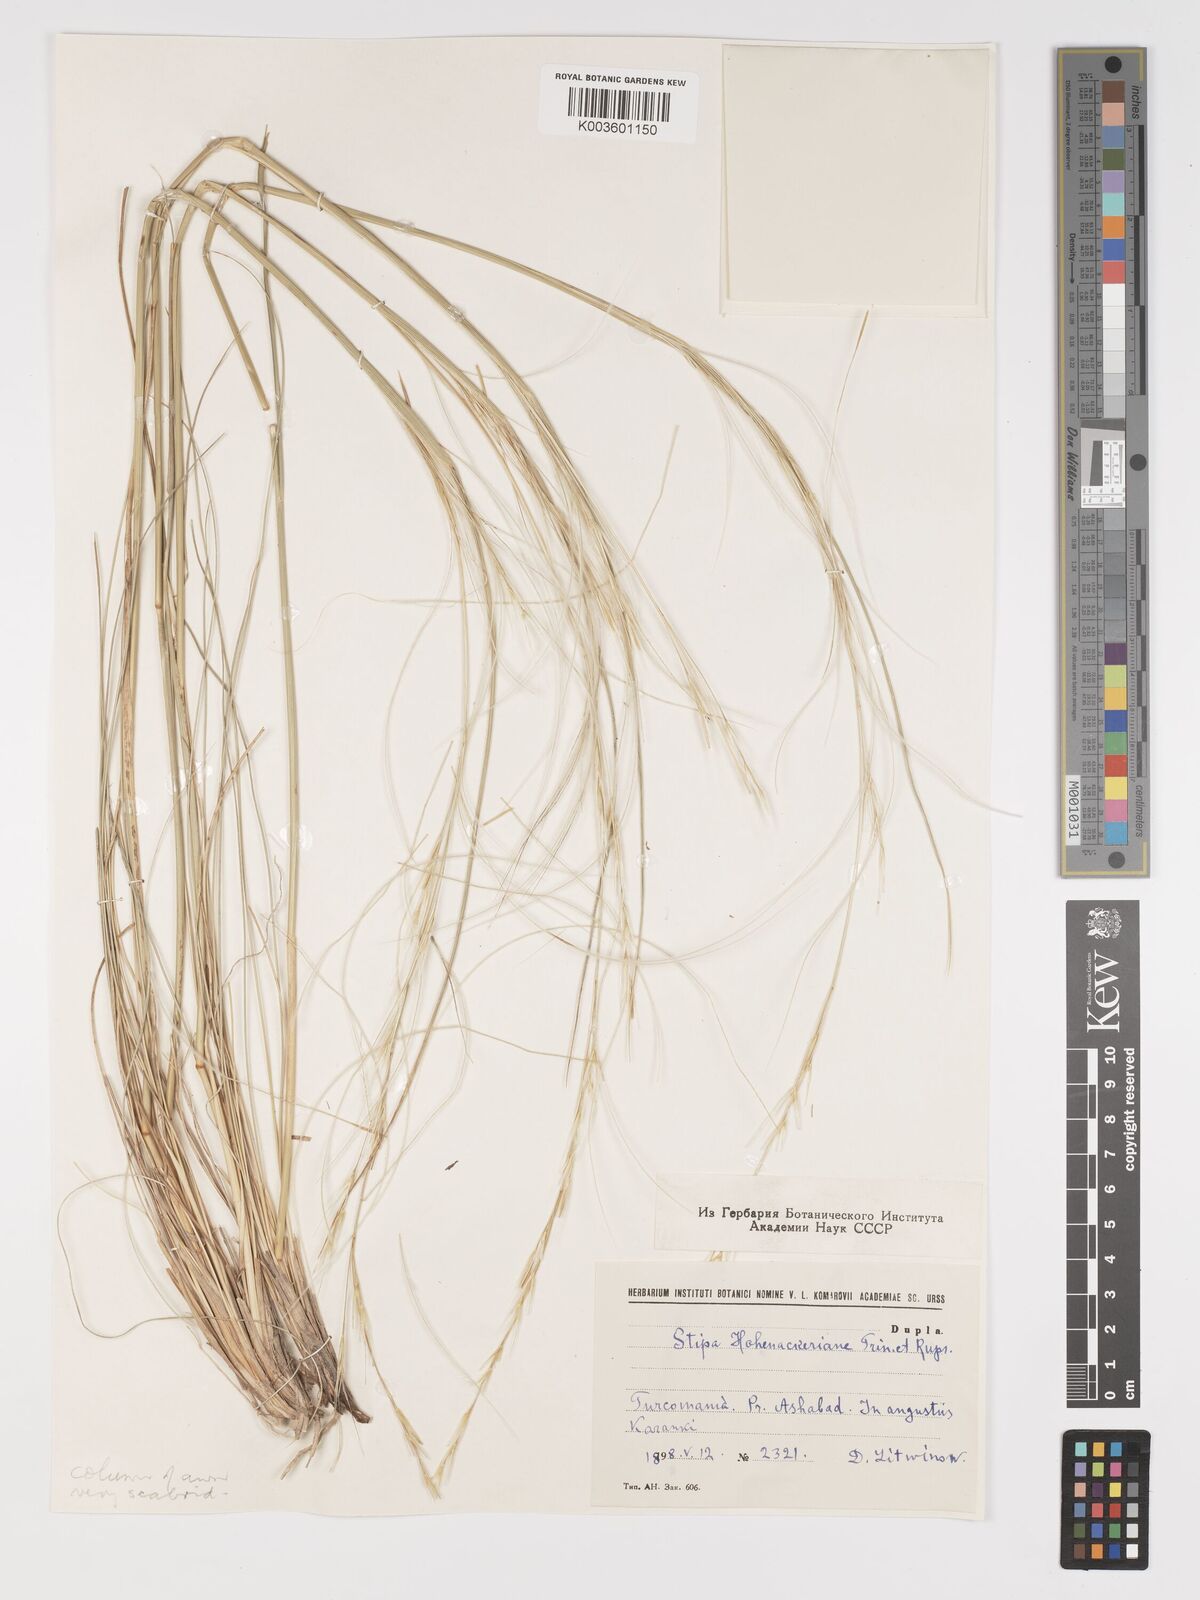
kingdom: Plantae
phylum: Tracheophyta
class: Liliopsida
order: Poales
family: Poaceae
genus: Stipa
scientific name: Stipa hohenackeriana
